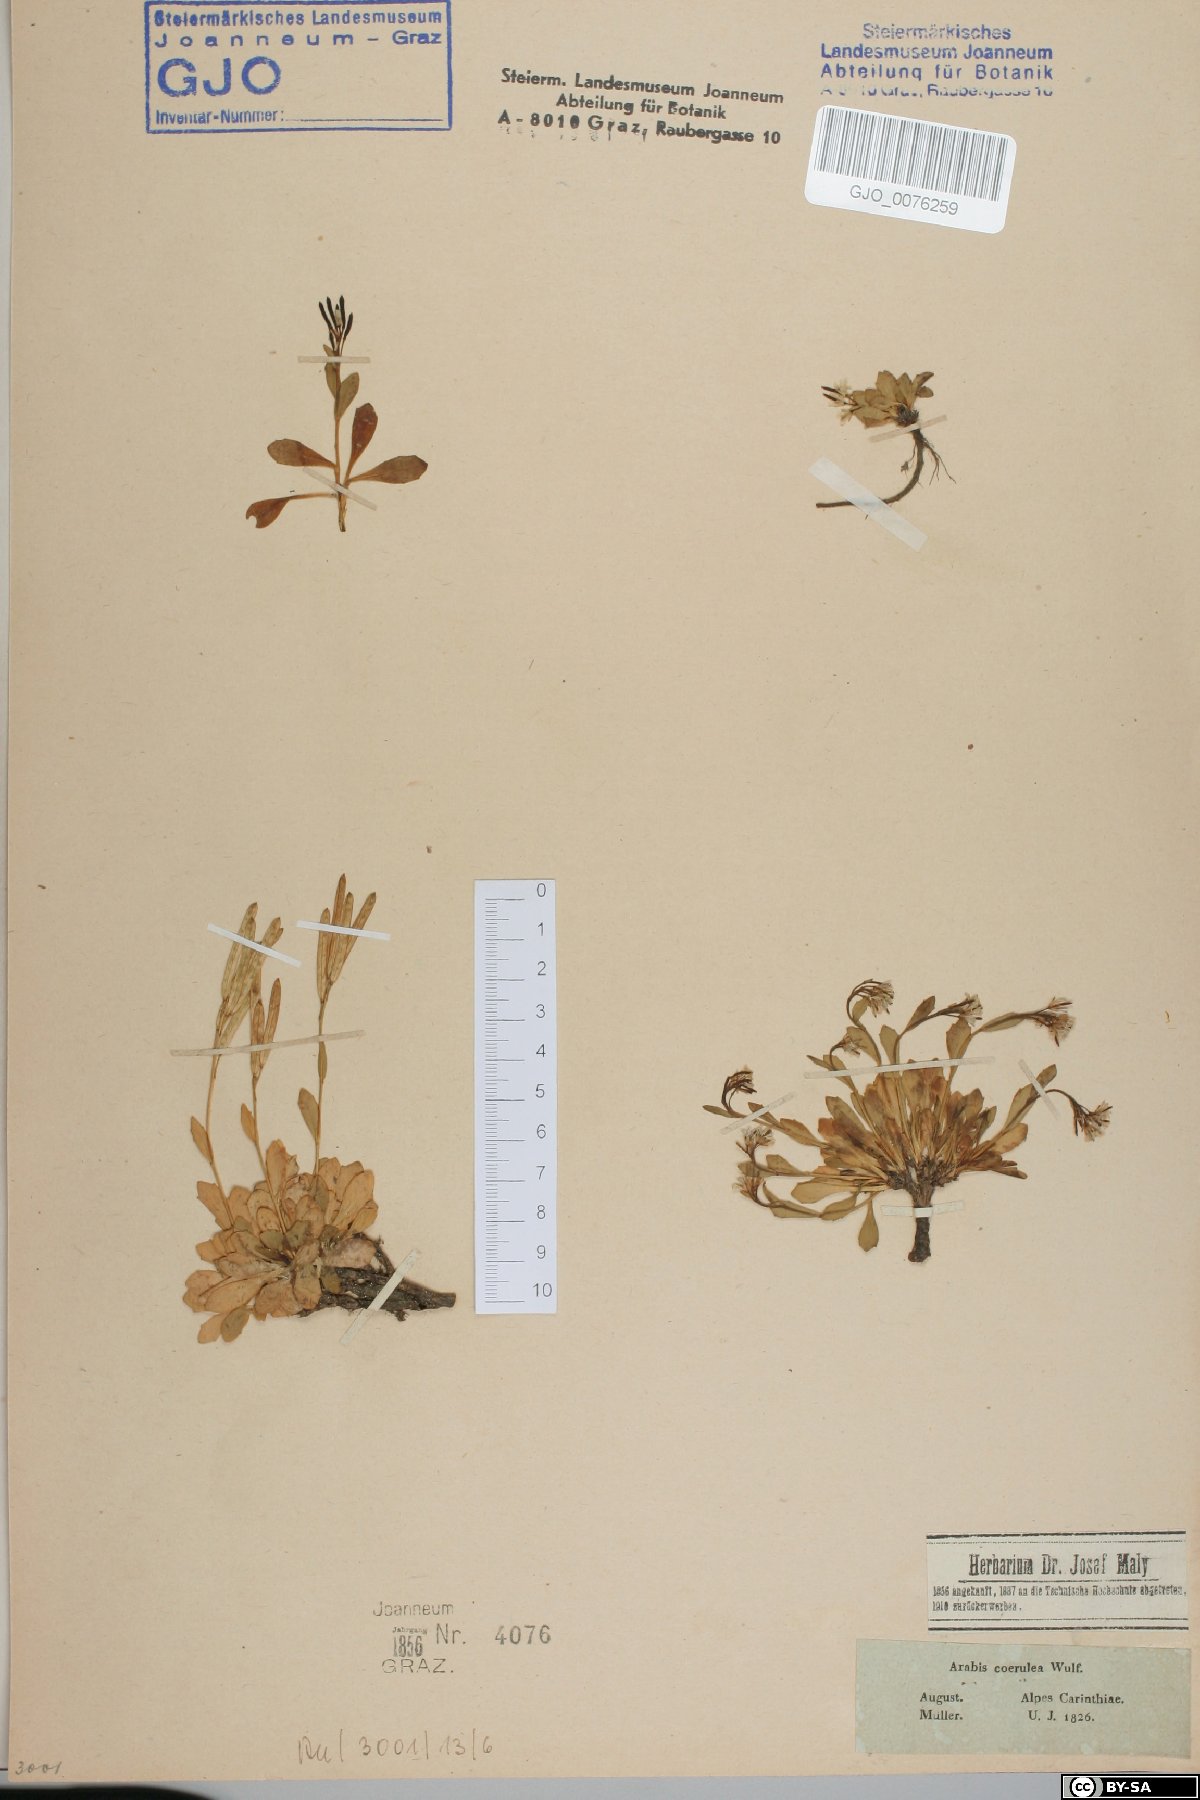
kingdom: Plantae
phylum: Tracheophyta
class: Magnoliopsida
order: Brassicales
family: Brassicaceae
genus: Arabis
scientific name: Arabis caerulea
